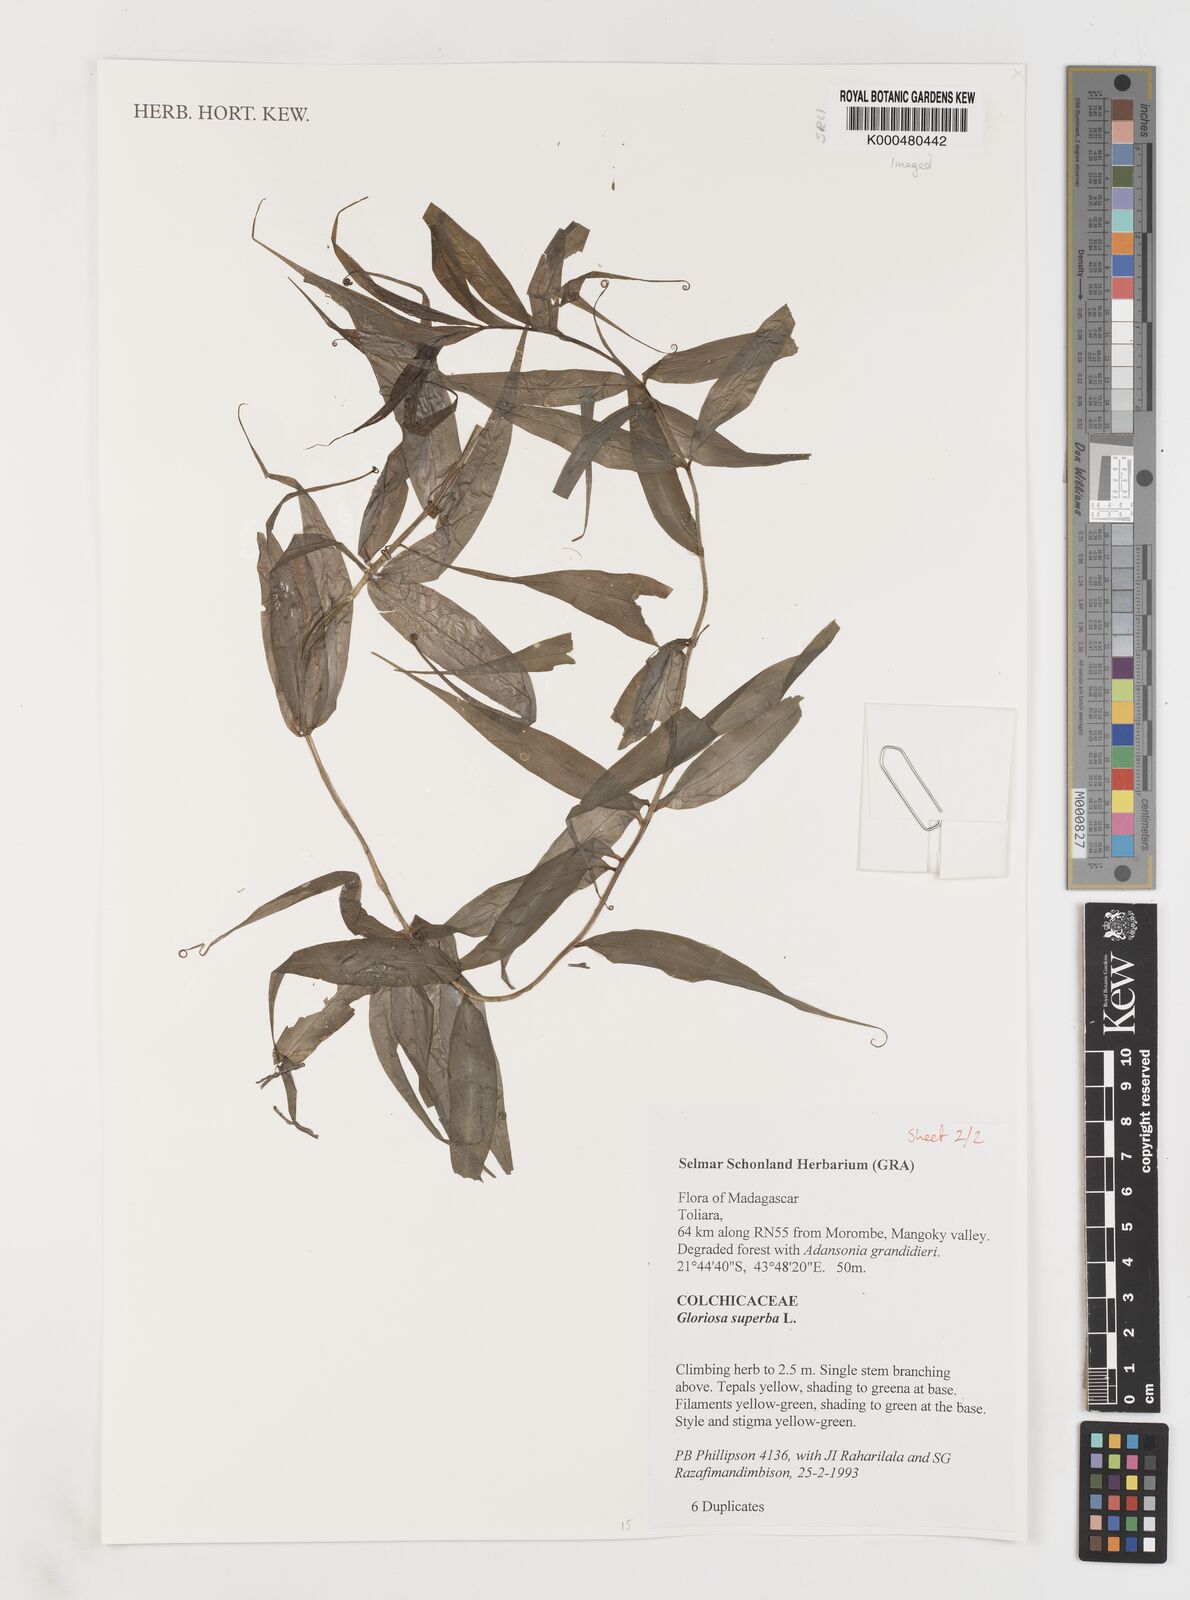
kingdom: Plantae
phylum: Tracheophyta
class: Liliopsida
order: Liliales
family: Colchicaceae
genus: Gloriosa
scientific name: Gloriosa superba
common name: Flame lily
